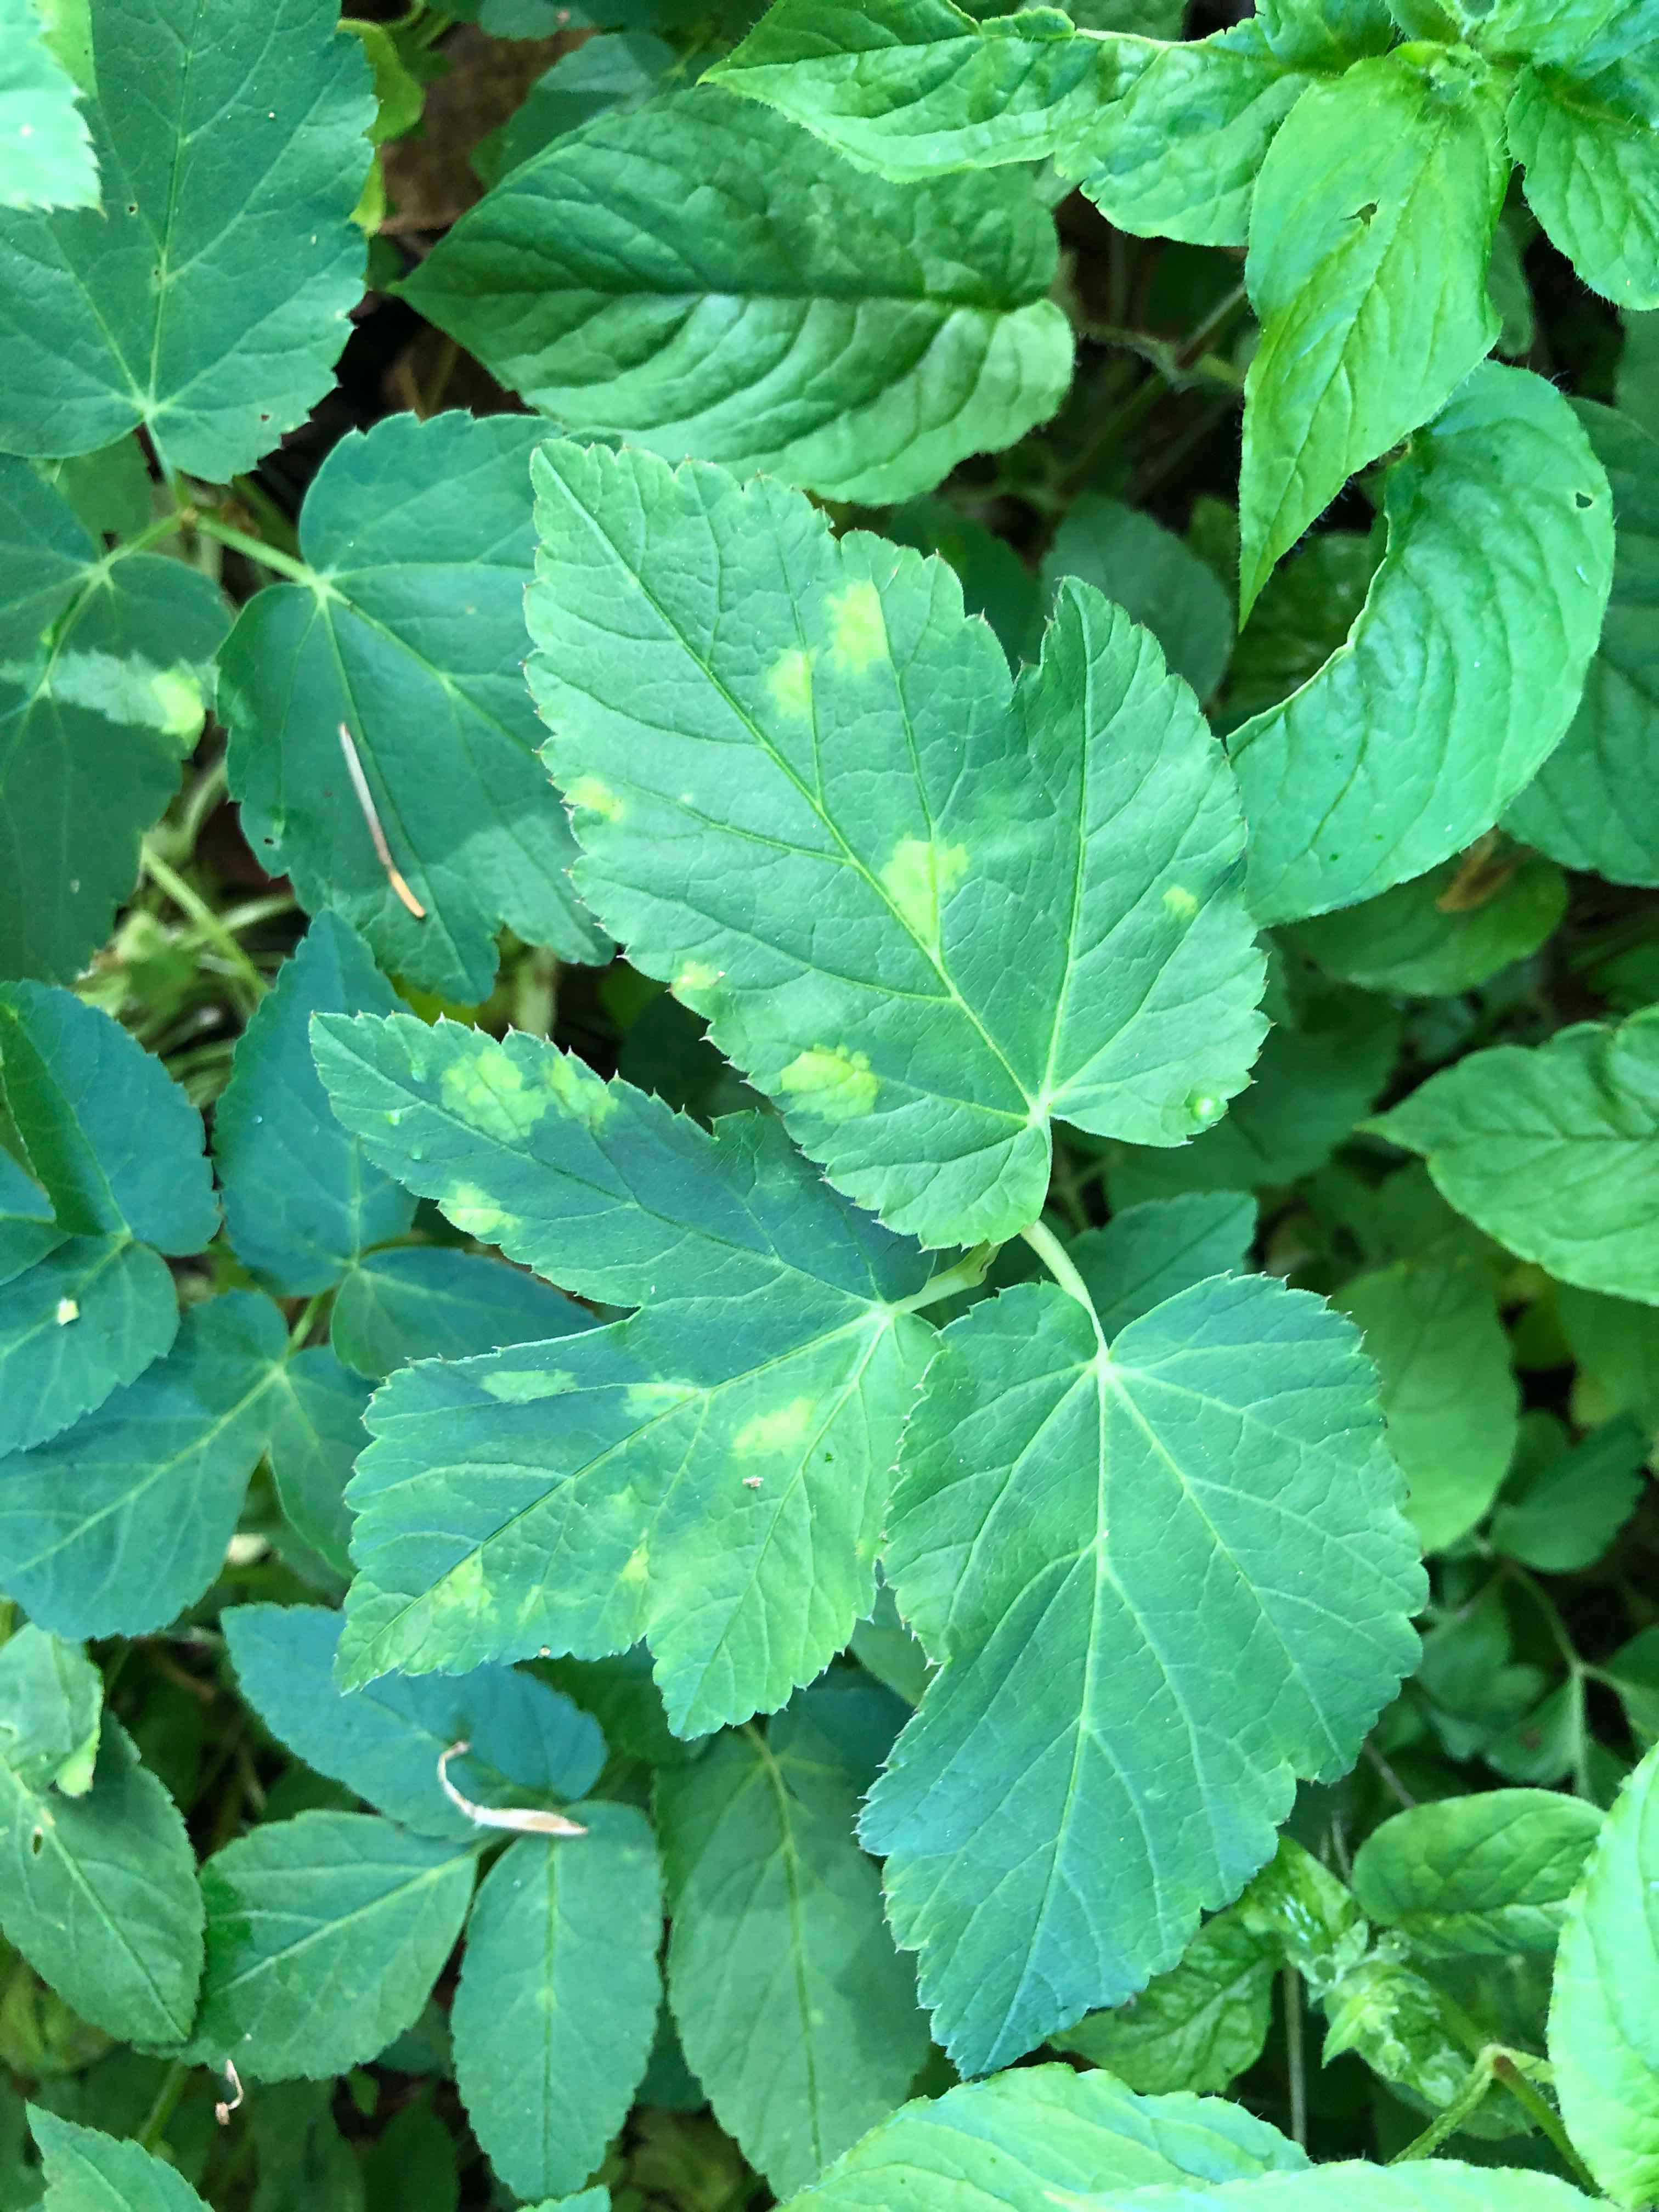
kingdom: Chromista
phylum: Oomycota
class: Peronosporea
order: Peronosporales
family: Peronosporaceae
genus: Peronospora
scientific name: Peronospora crustosa
